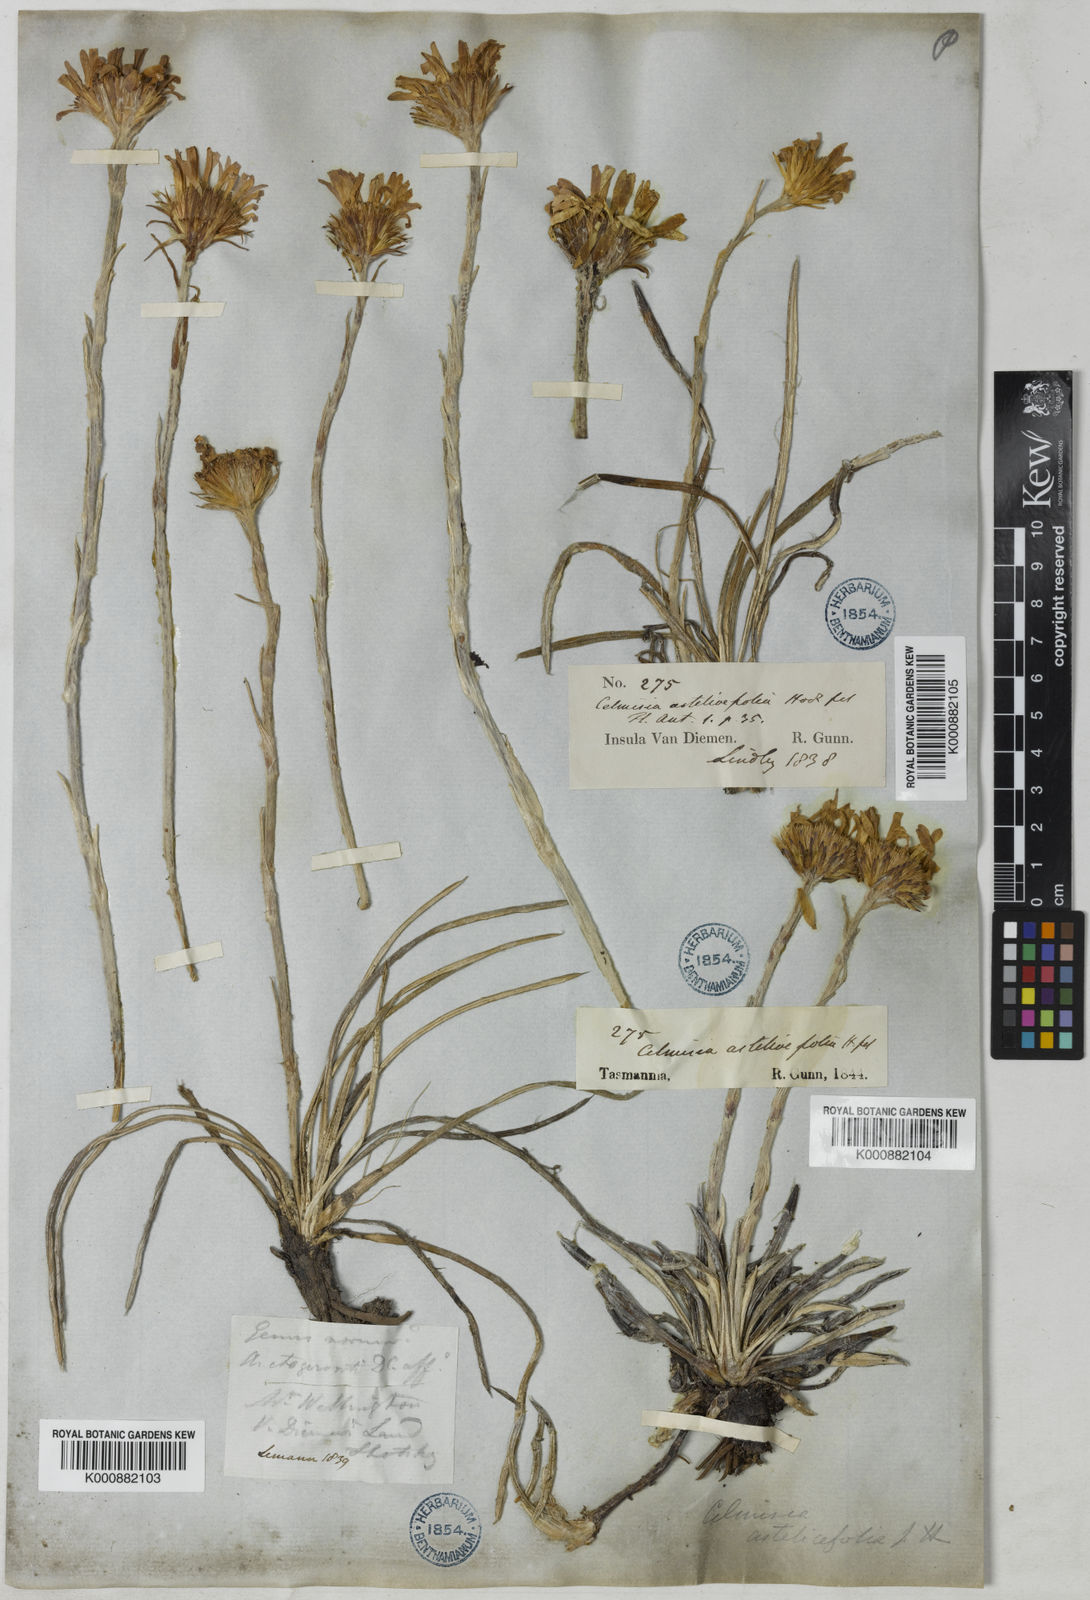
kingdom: Plantae
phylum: Tracheophyta
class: Magnoliopsida
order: Asterales
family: Asteraceae
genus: Celmisia
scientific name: Celmisia longifolia
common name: Silver snow daisy
